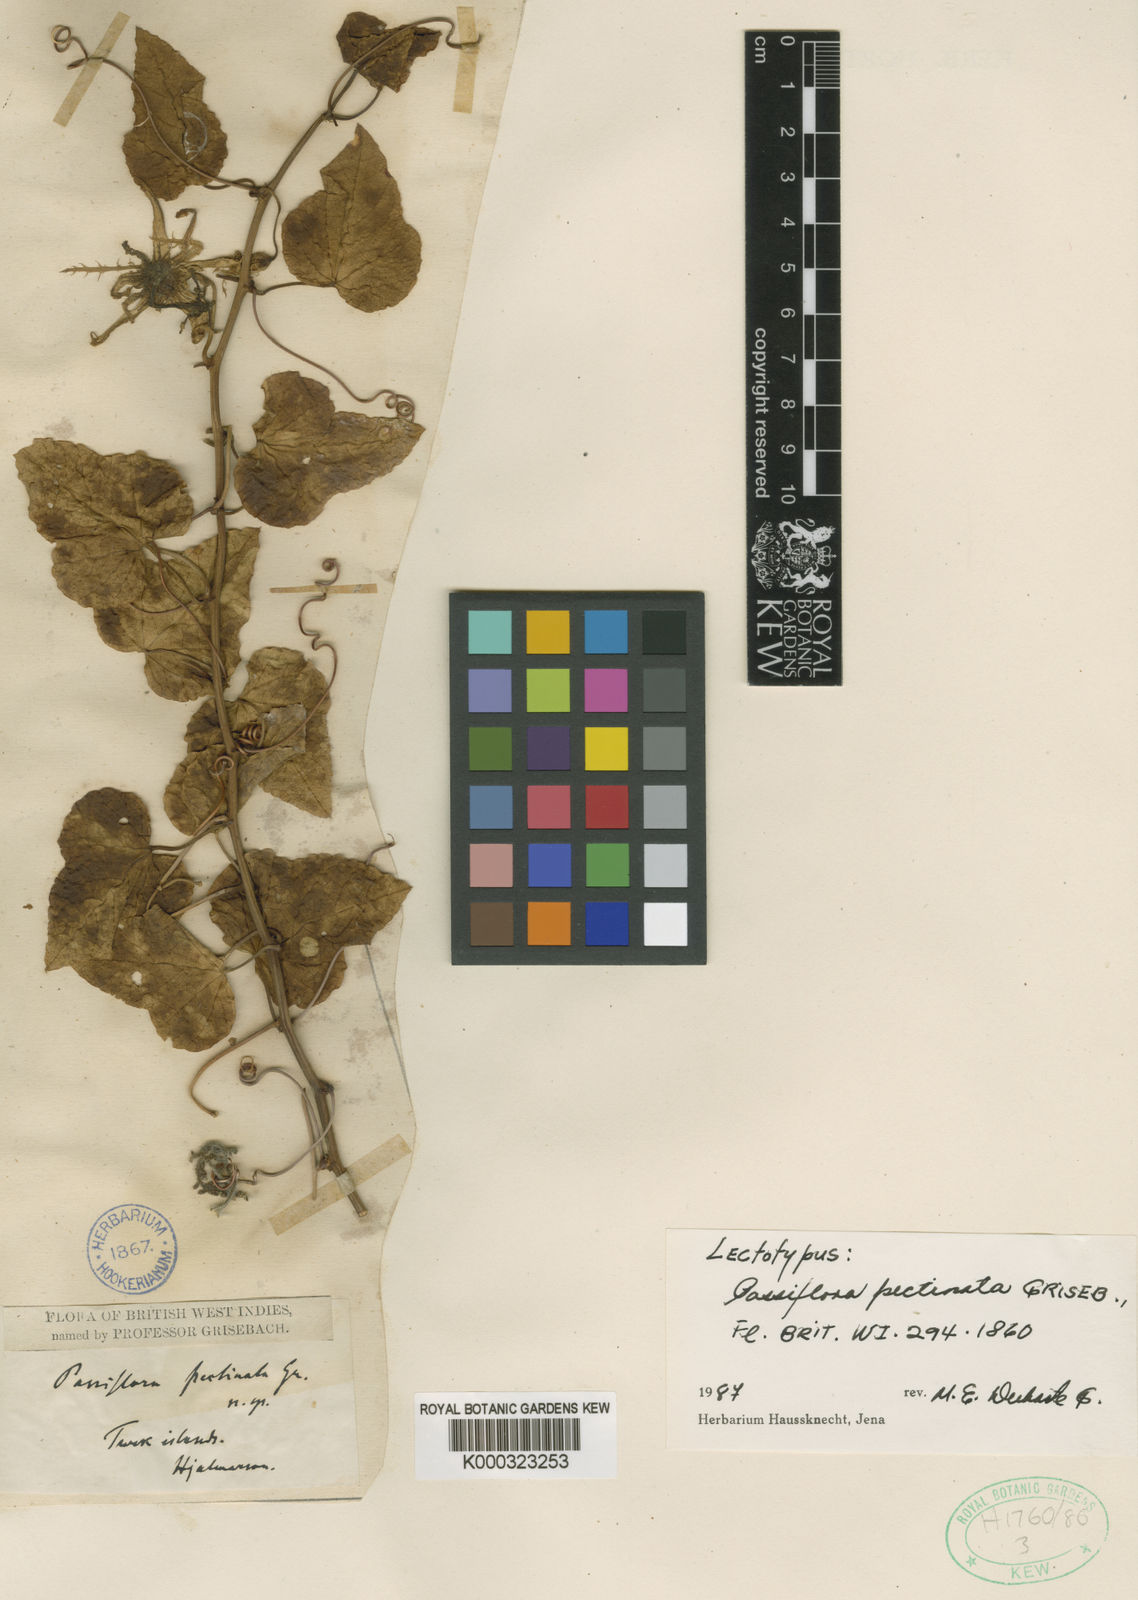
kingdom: Plantae
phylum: Tracheophyta
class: Magnoliopsida
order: Malpighiales
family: Passifloraceae
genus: Passiflora
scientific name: Passiflora pectinata
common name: White passionflower
